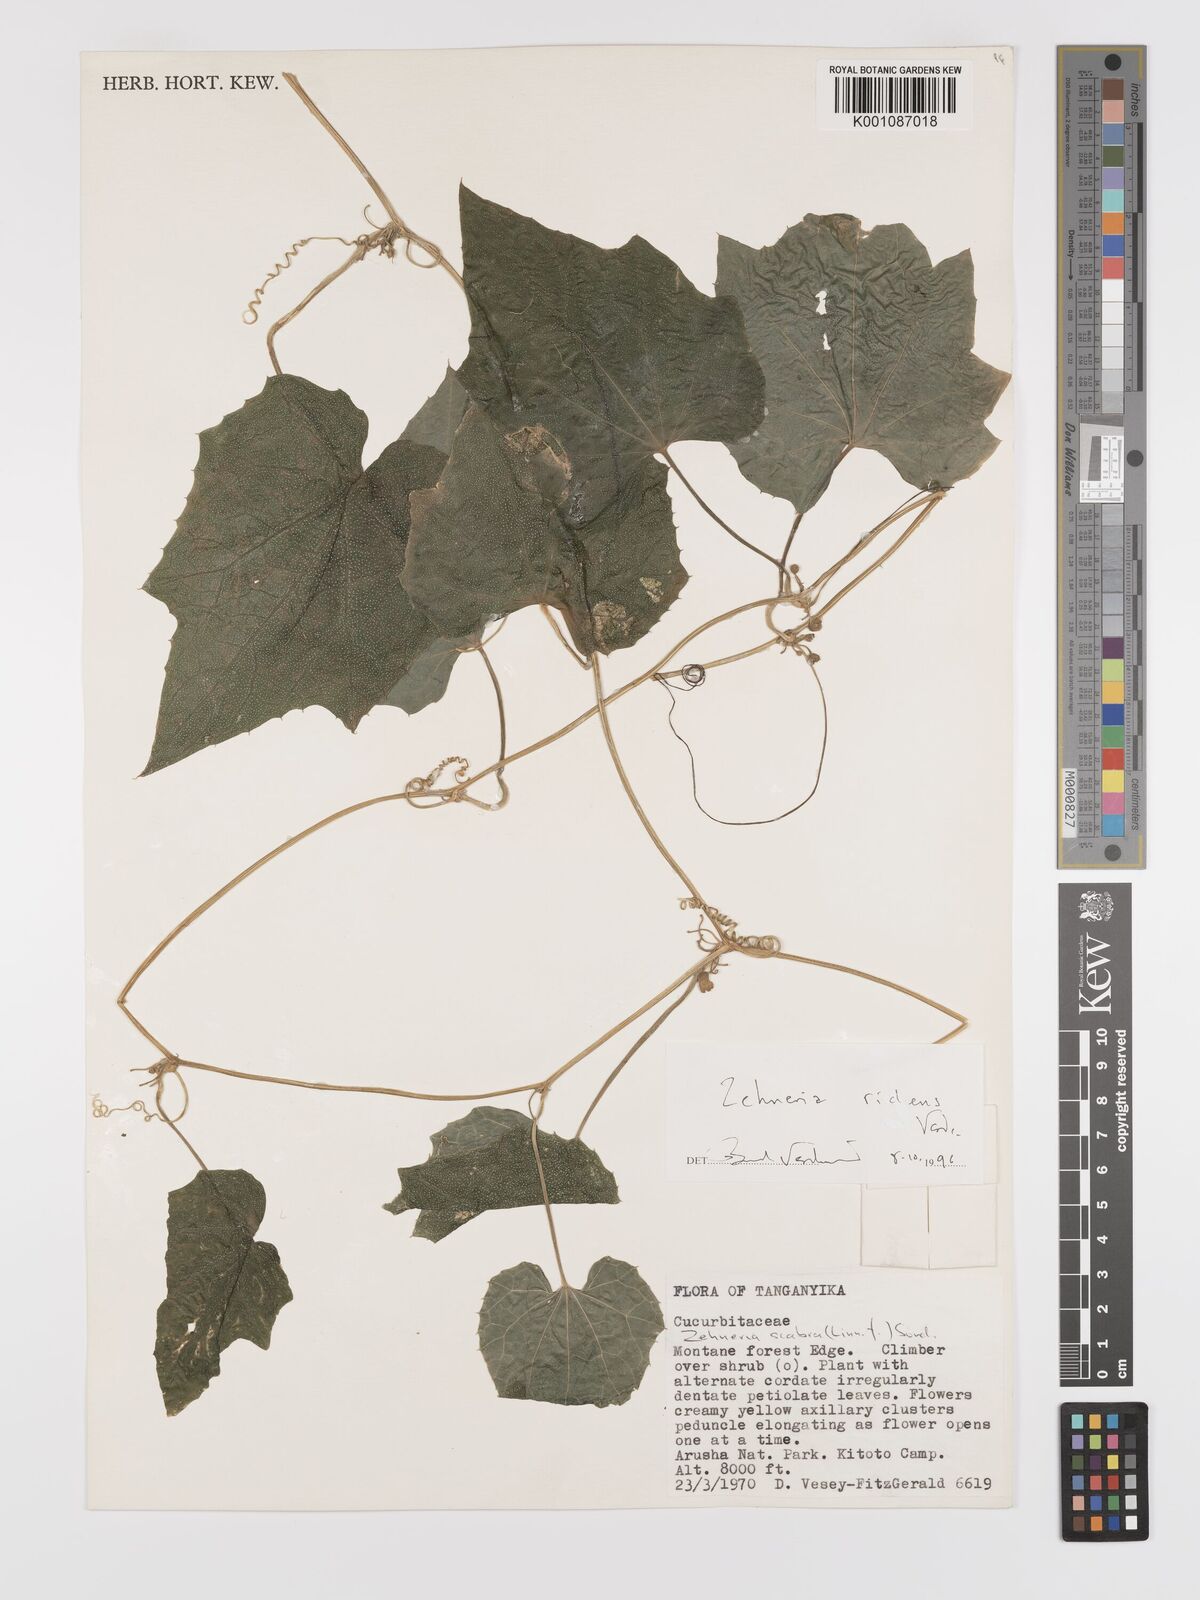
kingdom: Plantae
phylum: Tracheophyta
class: Magnoliopsida
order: Cucurbitales
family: Cucurbitaceae
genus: Zehneria
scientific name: Zehneria ridens
